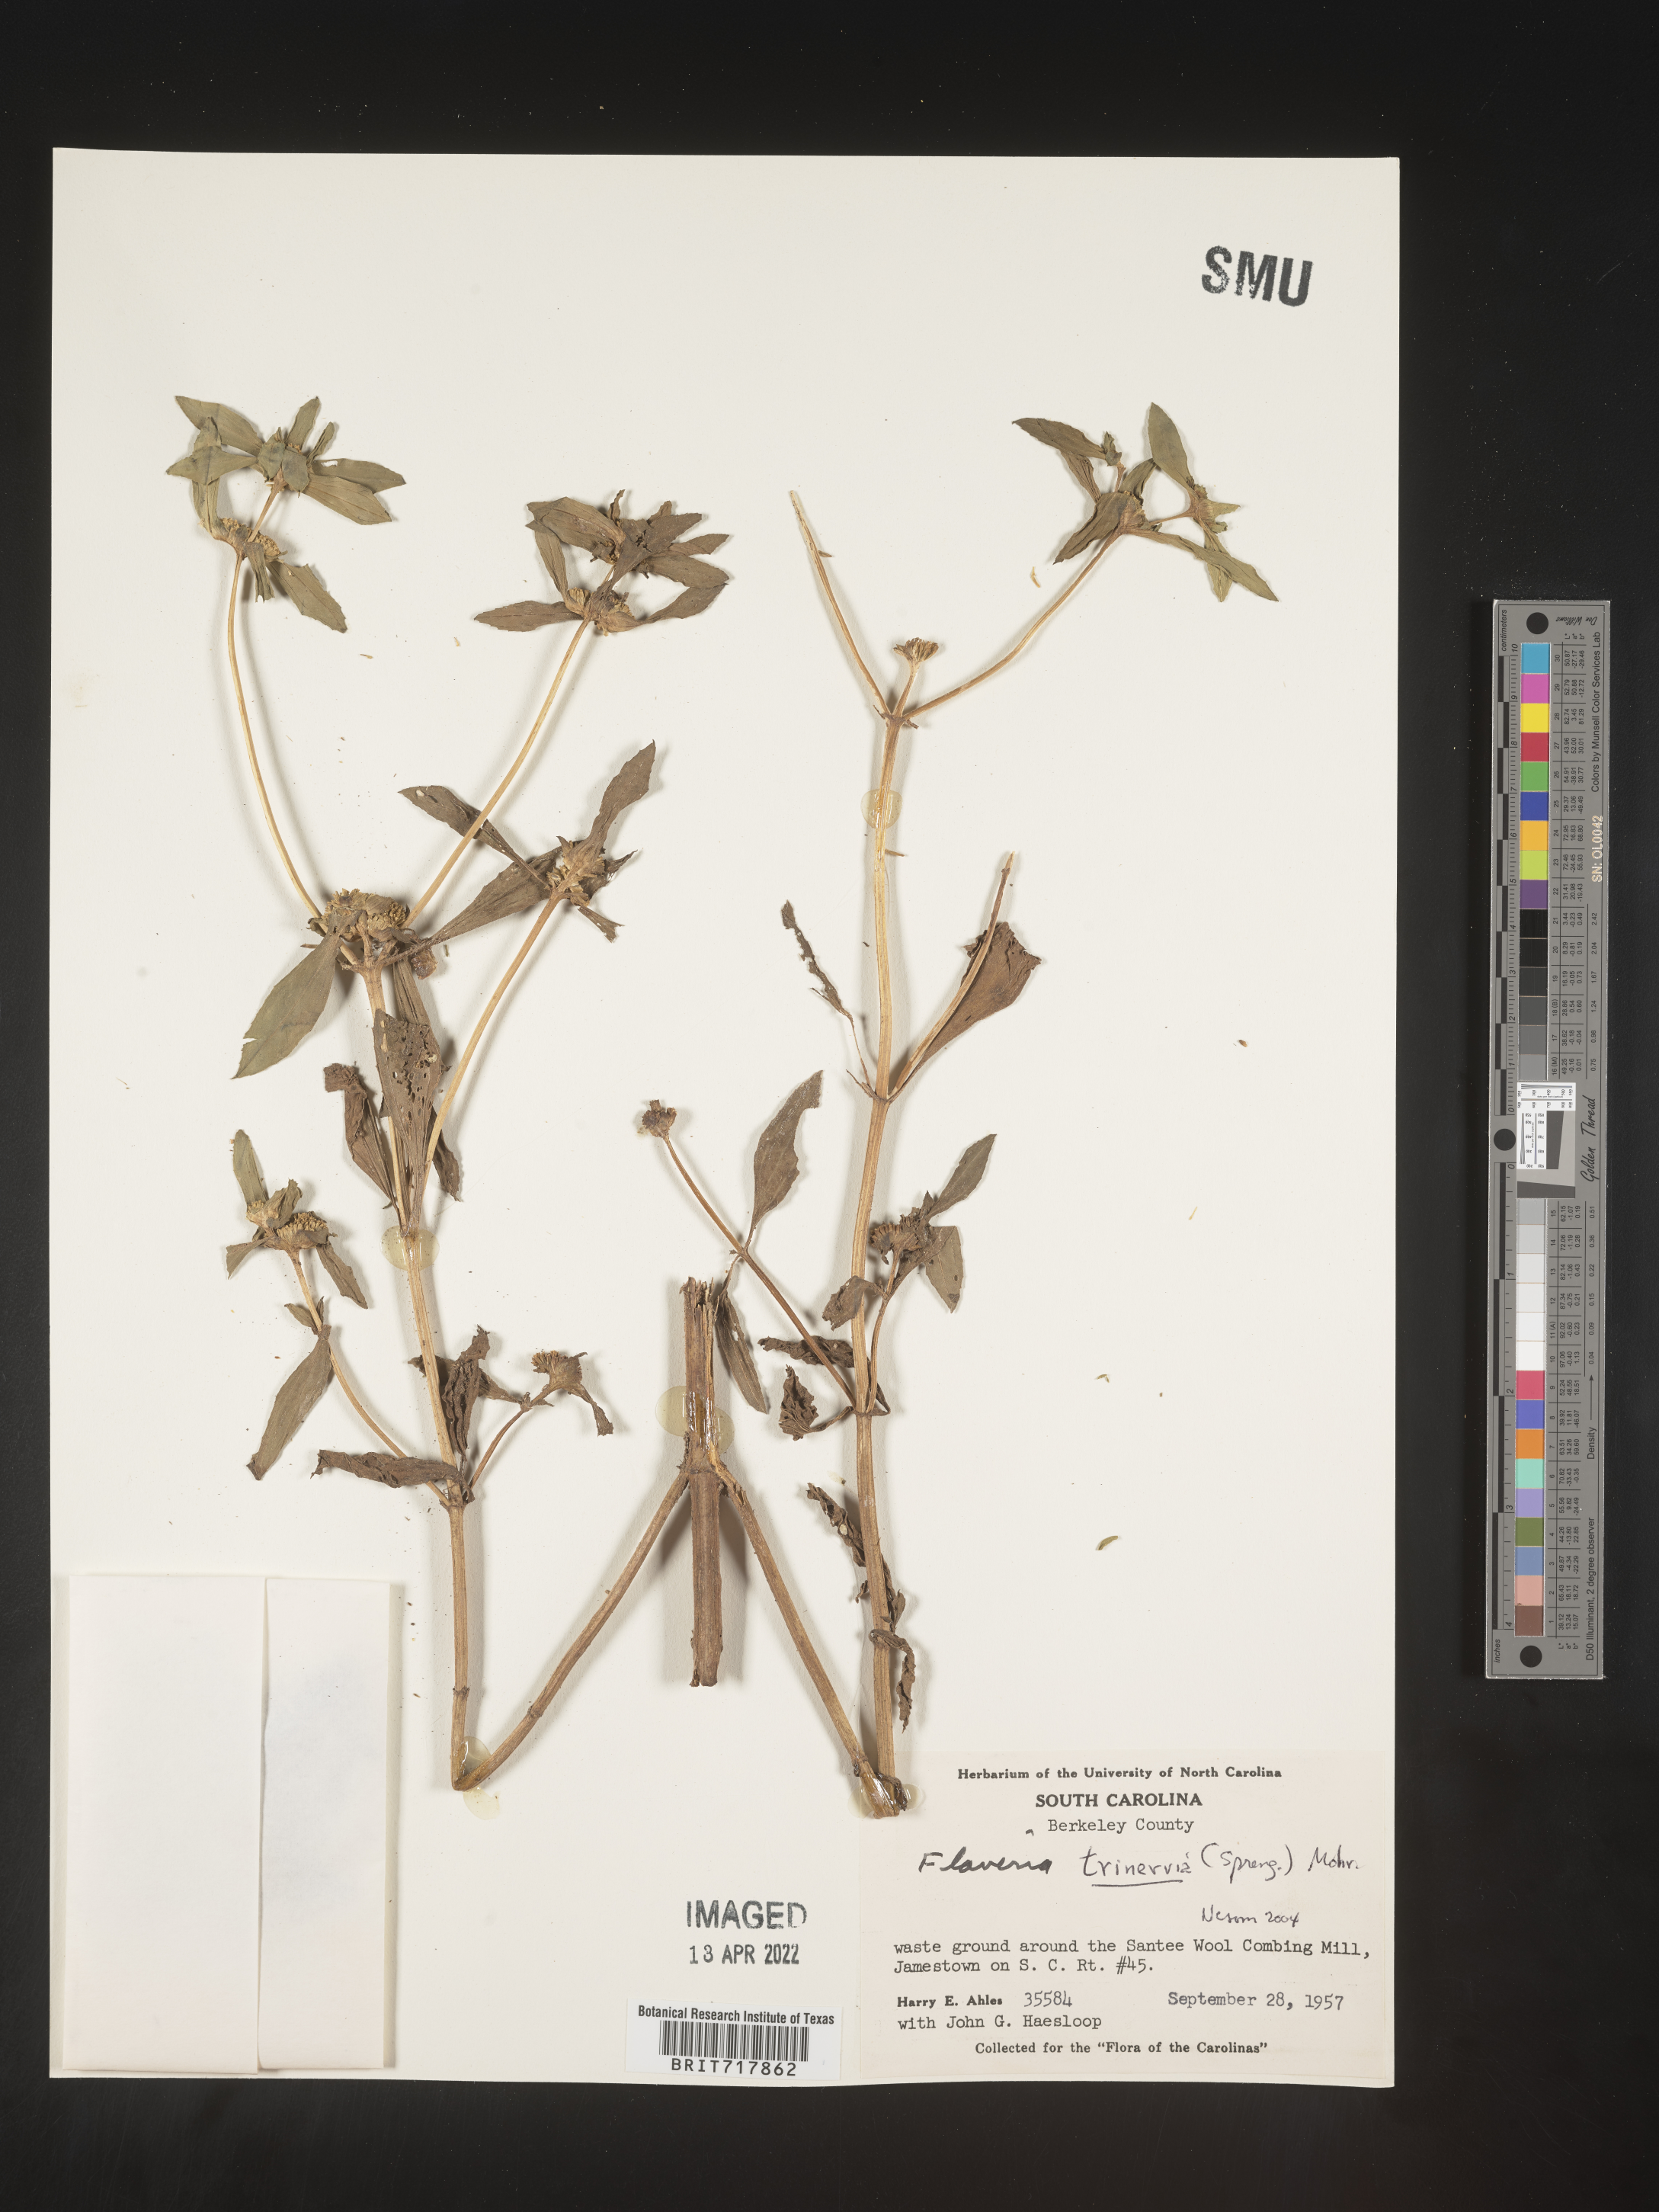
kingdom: Plantae
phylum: Tracheophyta
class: Magnoliopsida
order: Asterales
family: Asteraceae
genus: Flaveria
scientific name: Flaveria trinervia
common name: Clustered yellowtops
